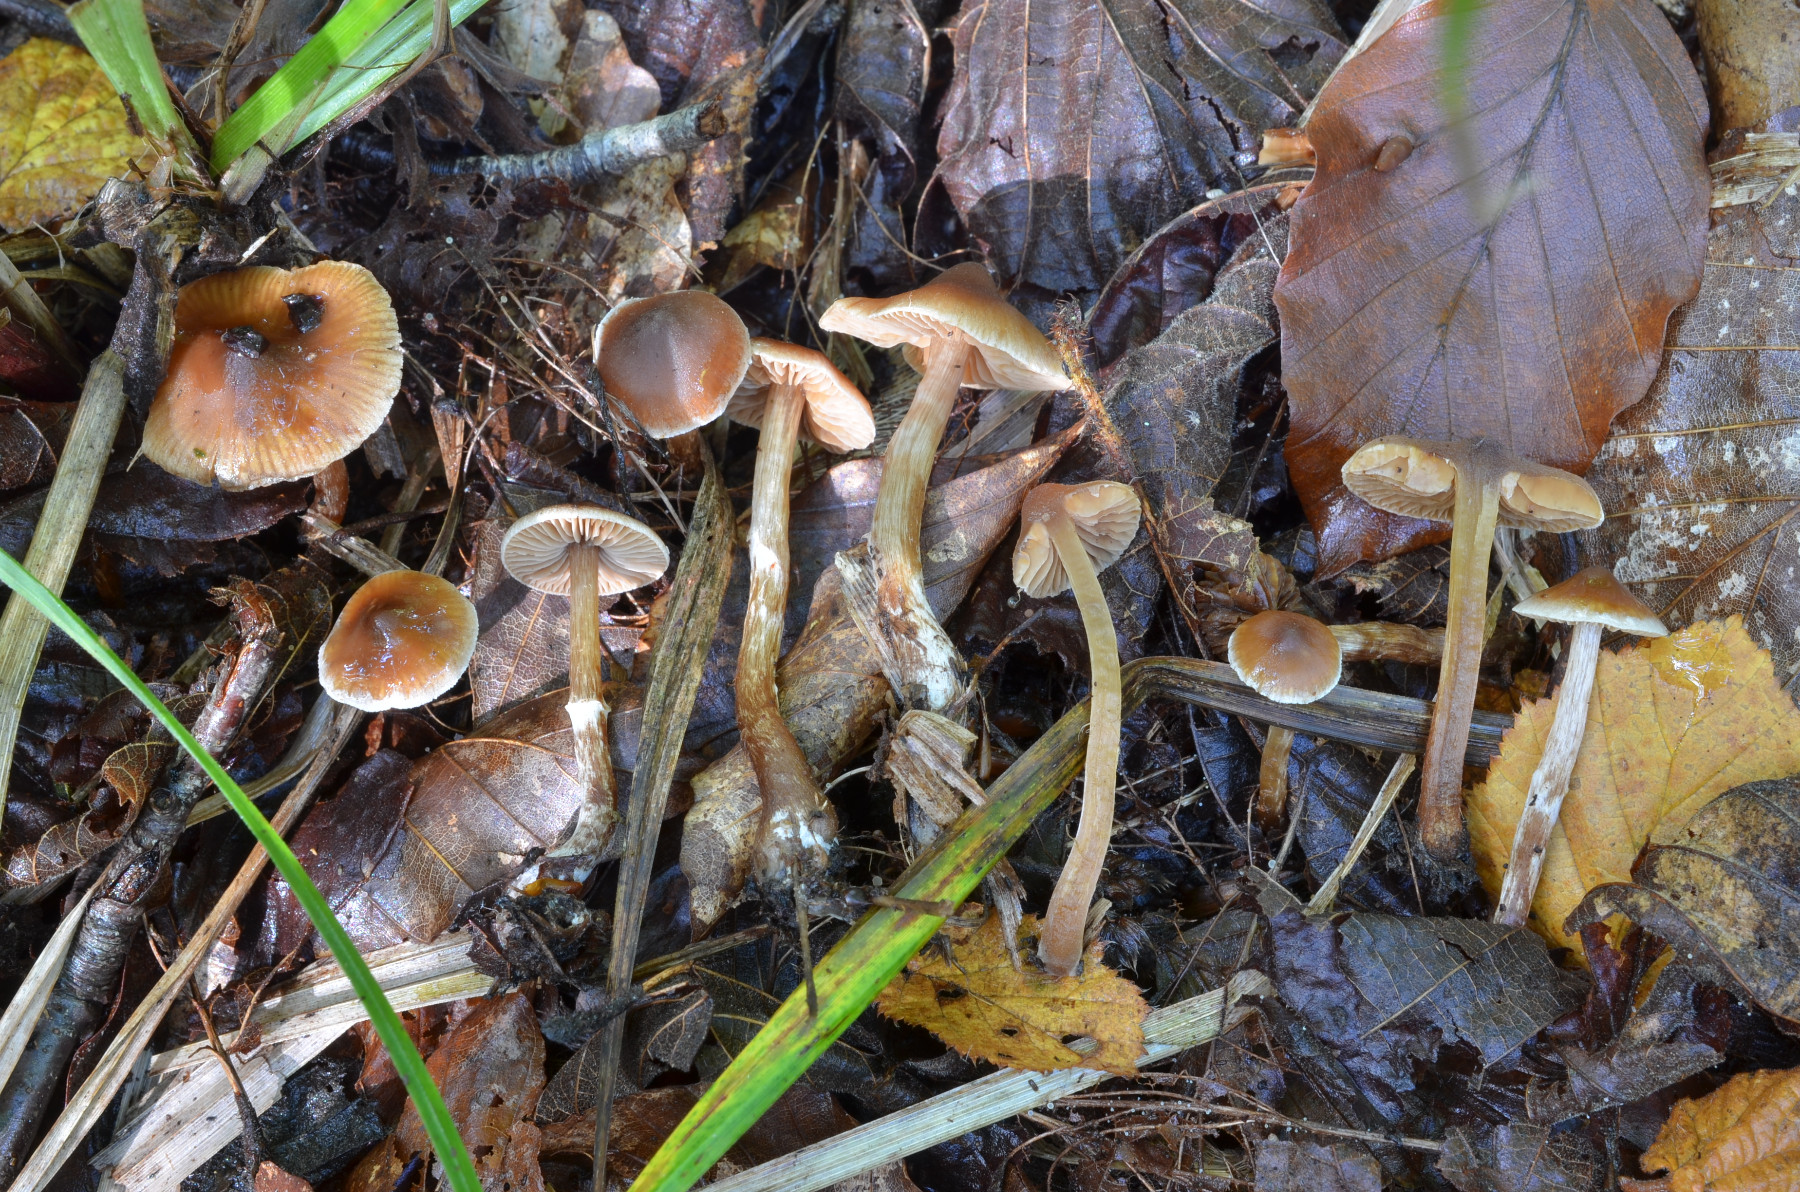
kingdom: Fungi
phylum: Basidiomycota
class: Agaricomycetes
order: Agaricales
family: Cortinariaceae
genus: Cortinarius
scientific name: Cortinarius mucicola
